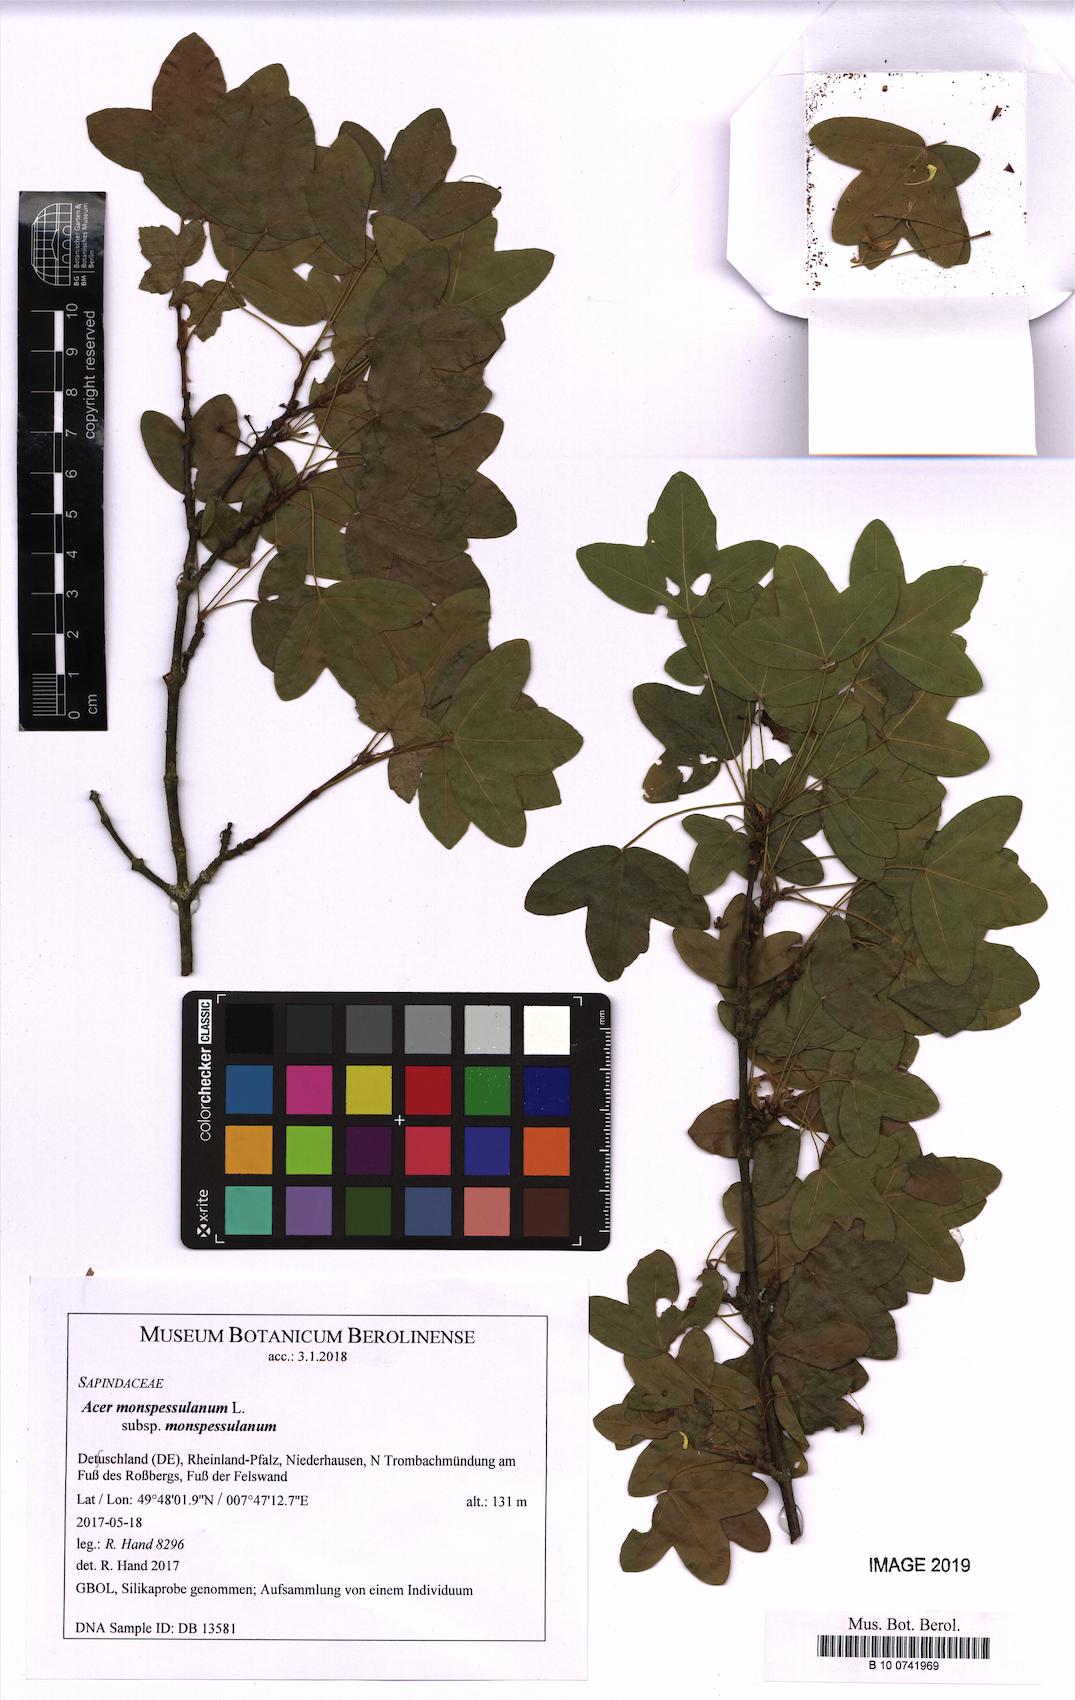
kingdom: Plantae
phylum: Tracheophyta
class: Magnoliopsida
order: Sapindales
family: Sapindaceae
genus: Acer
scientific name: Acer monspessulanum
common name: Montpellier maple
